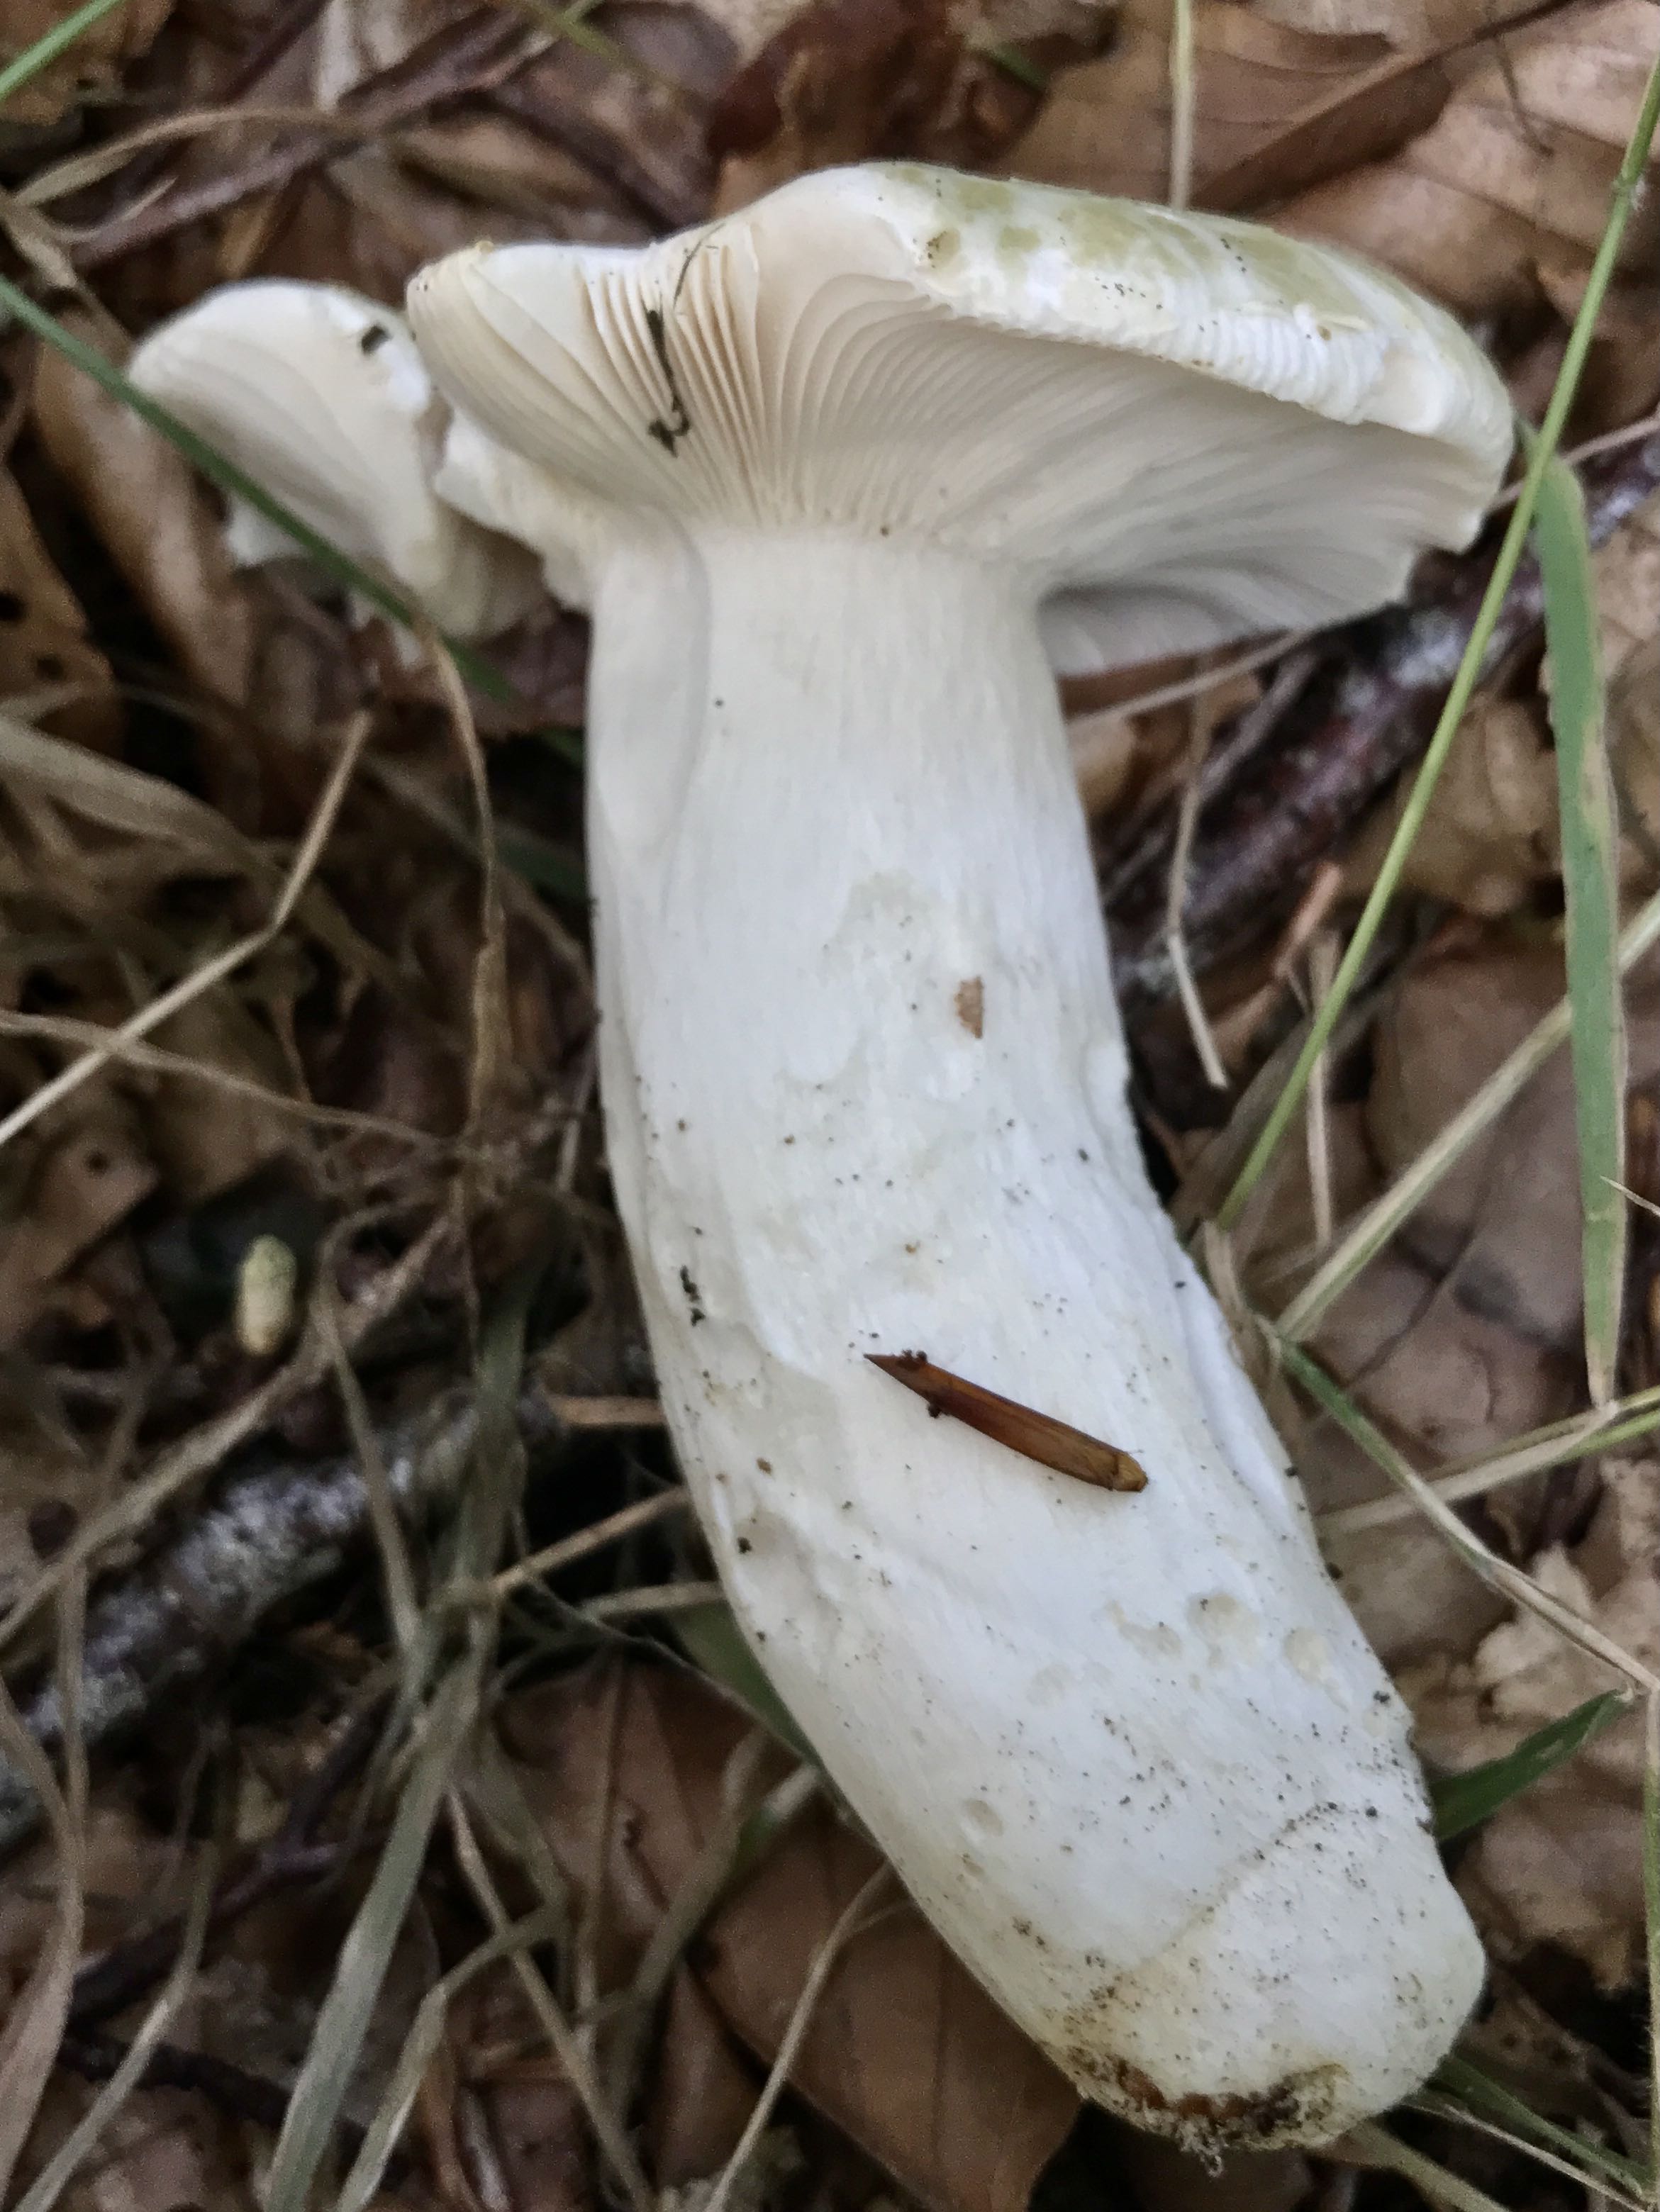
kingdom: Fungi
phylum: Basidiomycota
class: Agaricomycetes
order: Russulales
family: Russulaceae
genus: Russula
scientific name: Russula virescens
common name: spanskgrøn skørhat
